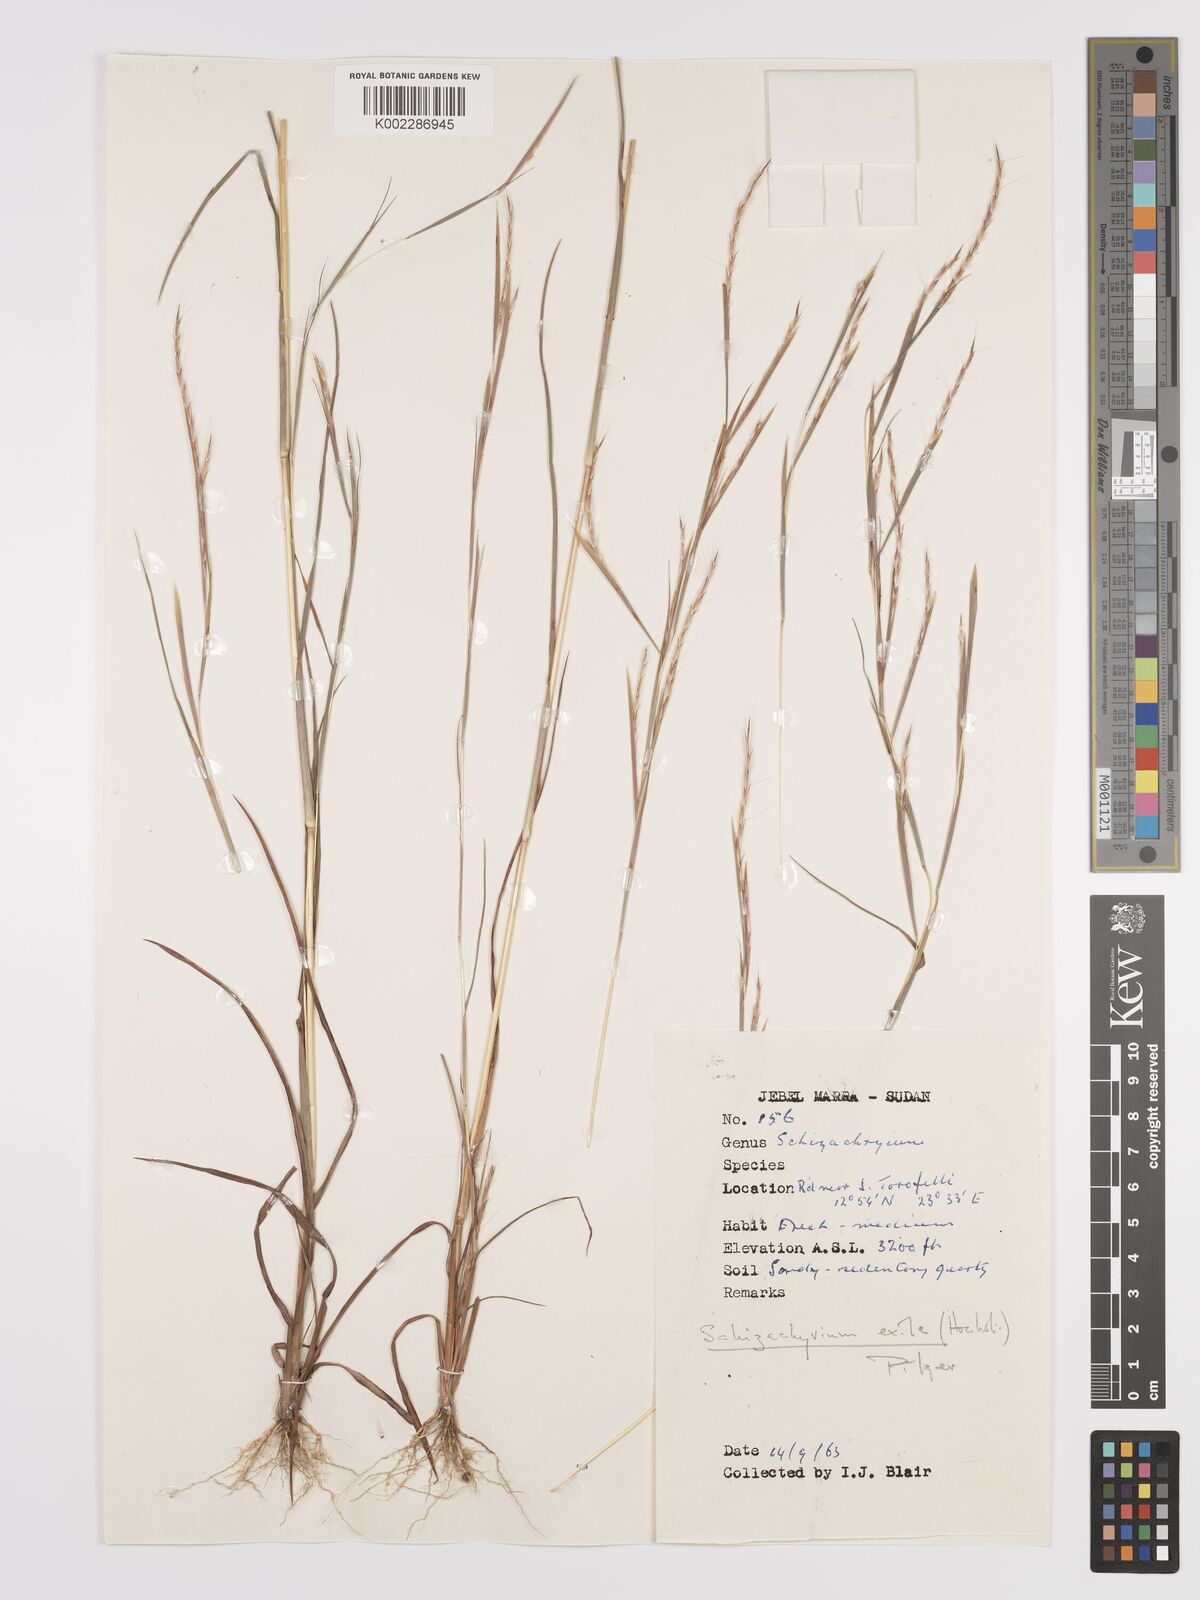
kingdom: Plantae
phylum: Tracheophyta
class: Liliopsida
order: Poales
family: Poaceae
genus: Schizachyrium
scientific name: Schizachyrium exile
